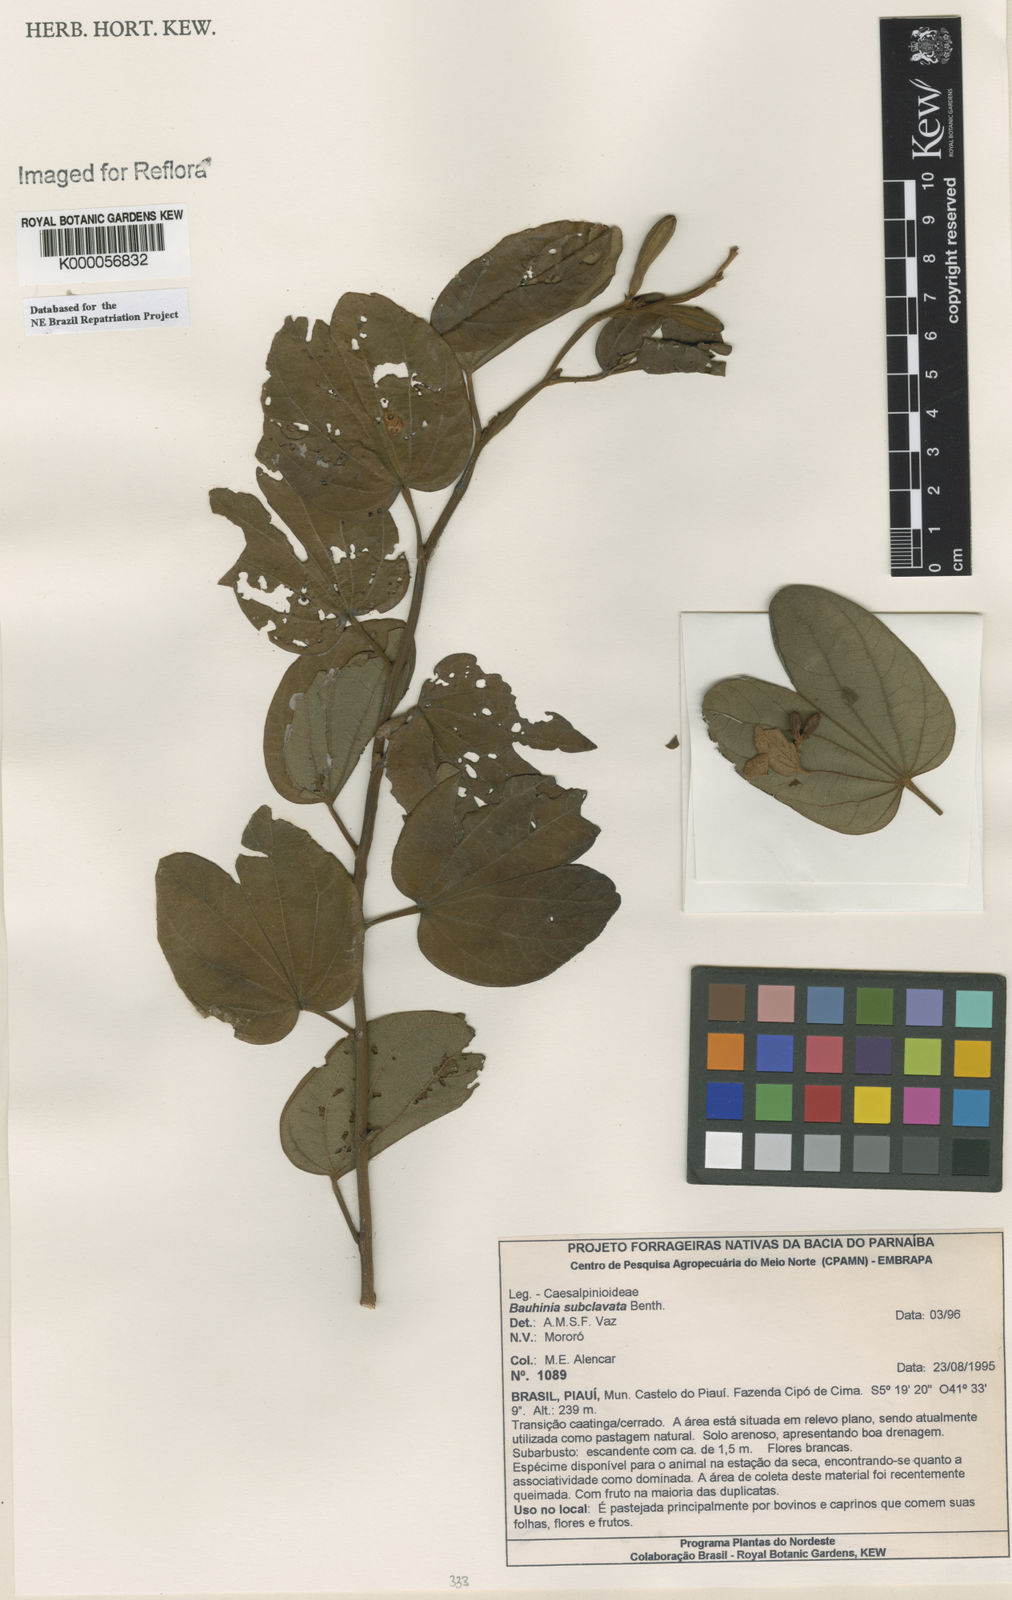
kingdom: Plantae
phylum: Tracheophyta
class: Magnoliopsida
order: Fabales
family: Fabaceae
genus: Bauhinia
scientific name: Bauhinia subclavata
